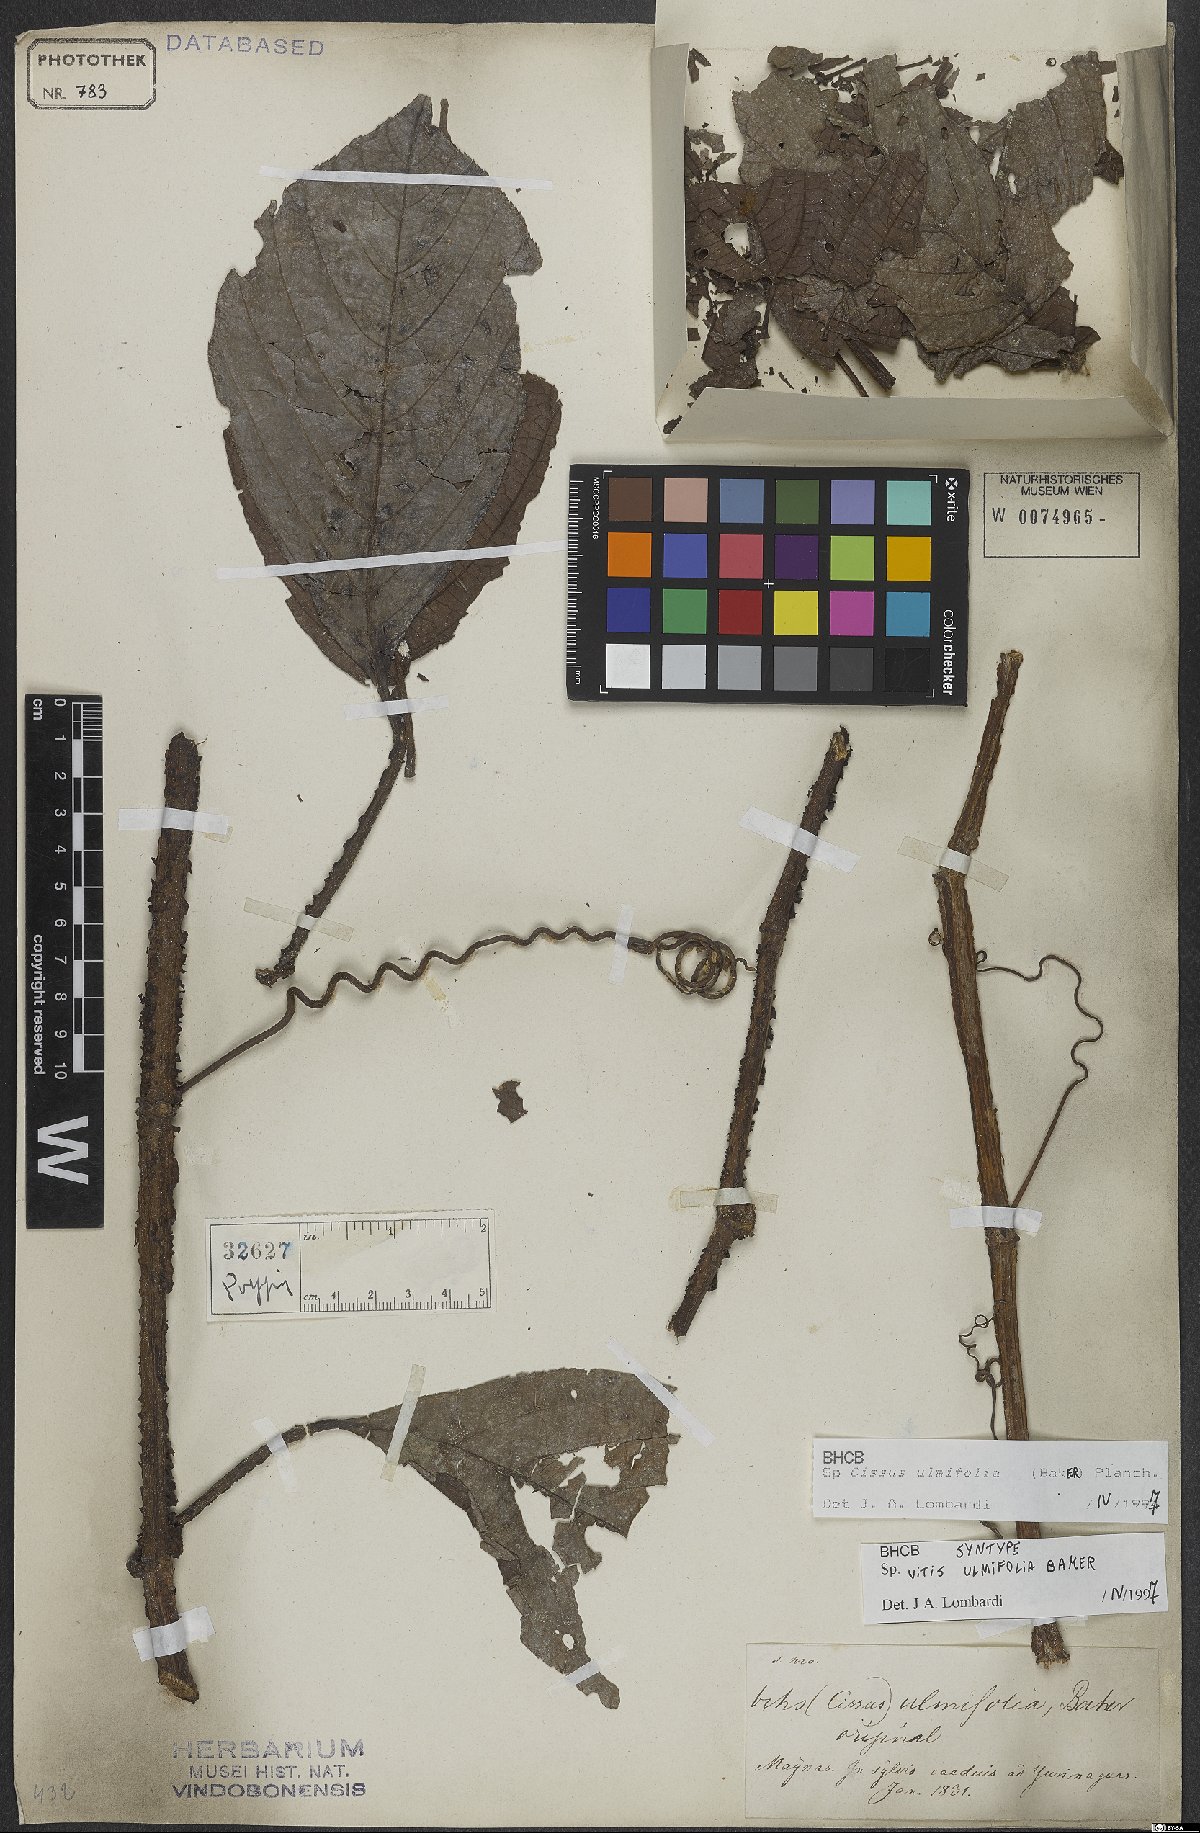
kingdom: Plantae
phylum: Tracheophyta
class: Magnoliopsida
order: Vitales
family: Vitaceae
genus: Cissus
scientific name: Cissus lombardiana
